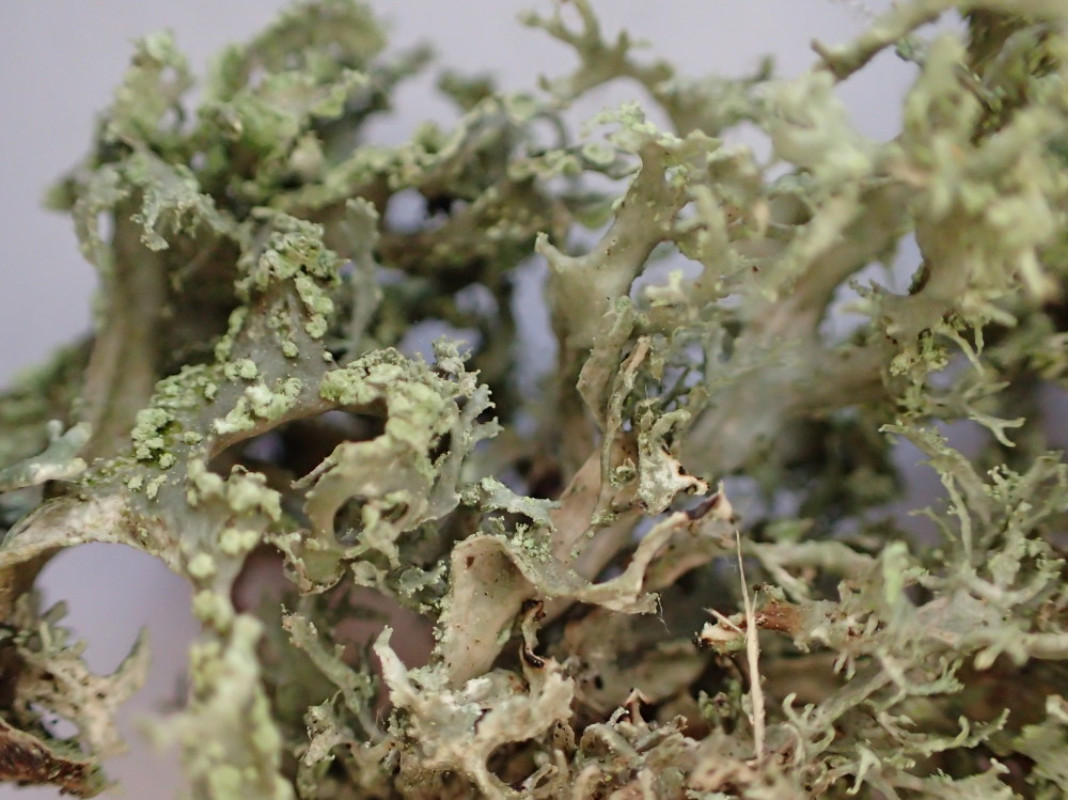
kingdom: Fungi
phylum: Ascomycota
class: Lecanoromycetes
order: Lecanorales
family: Ramalinaceae
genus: Ramalina
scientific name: Ramalina farinacea
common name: melet grenlav
